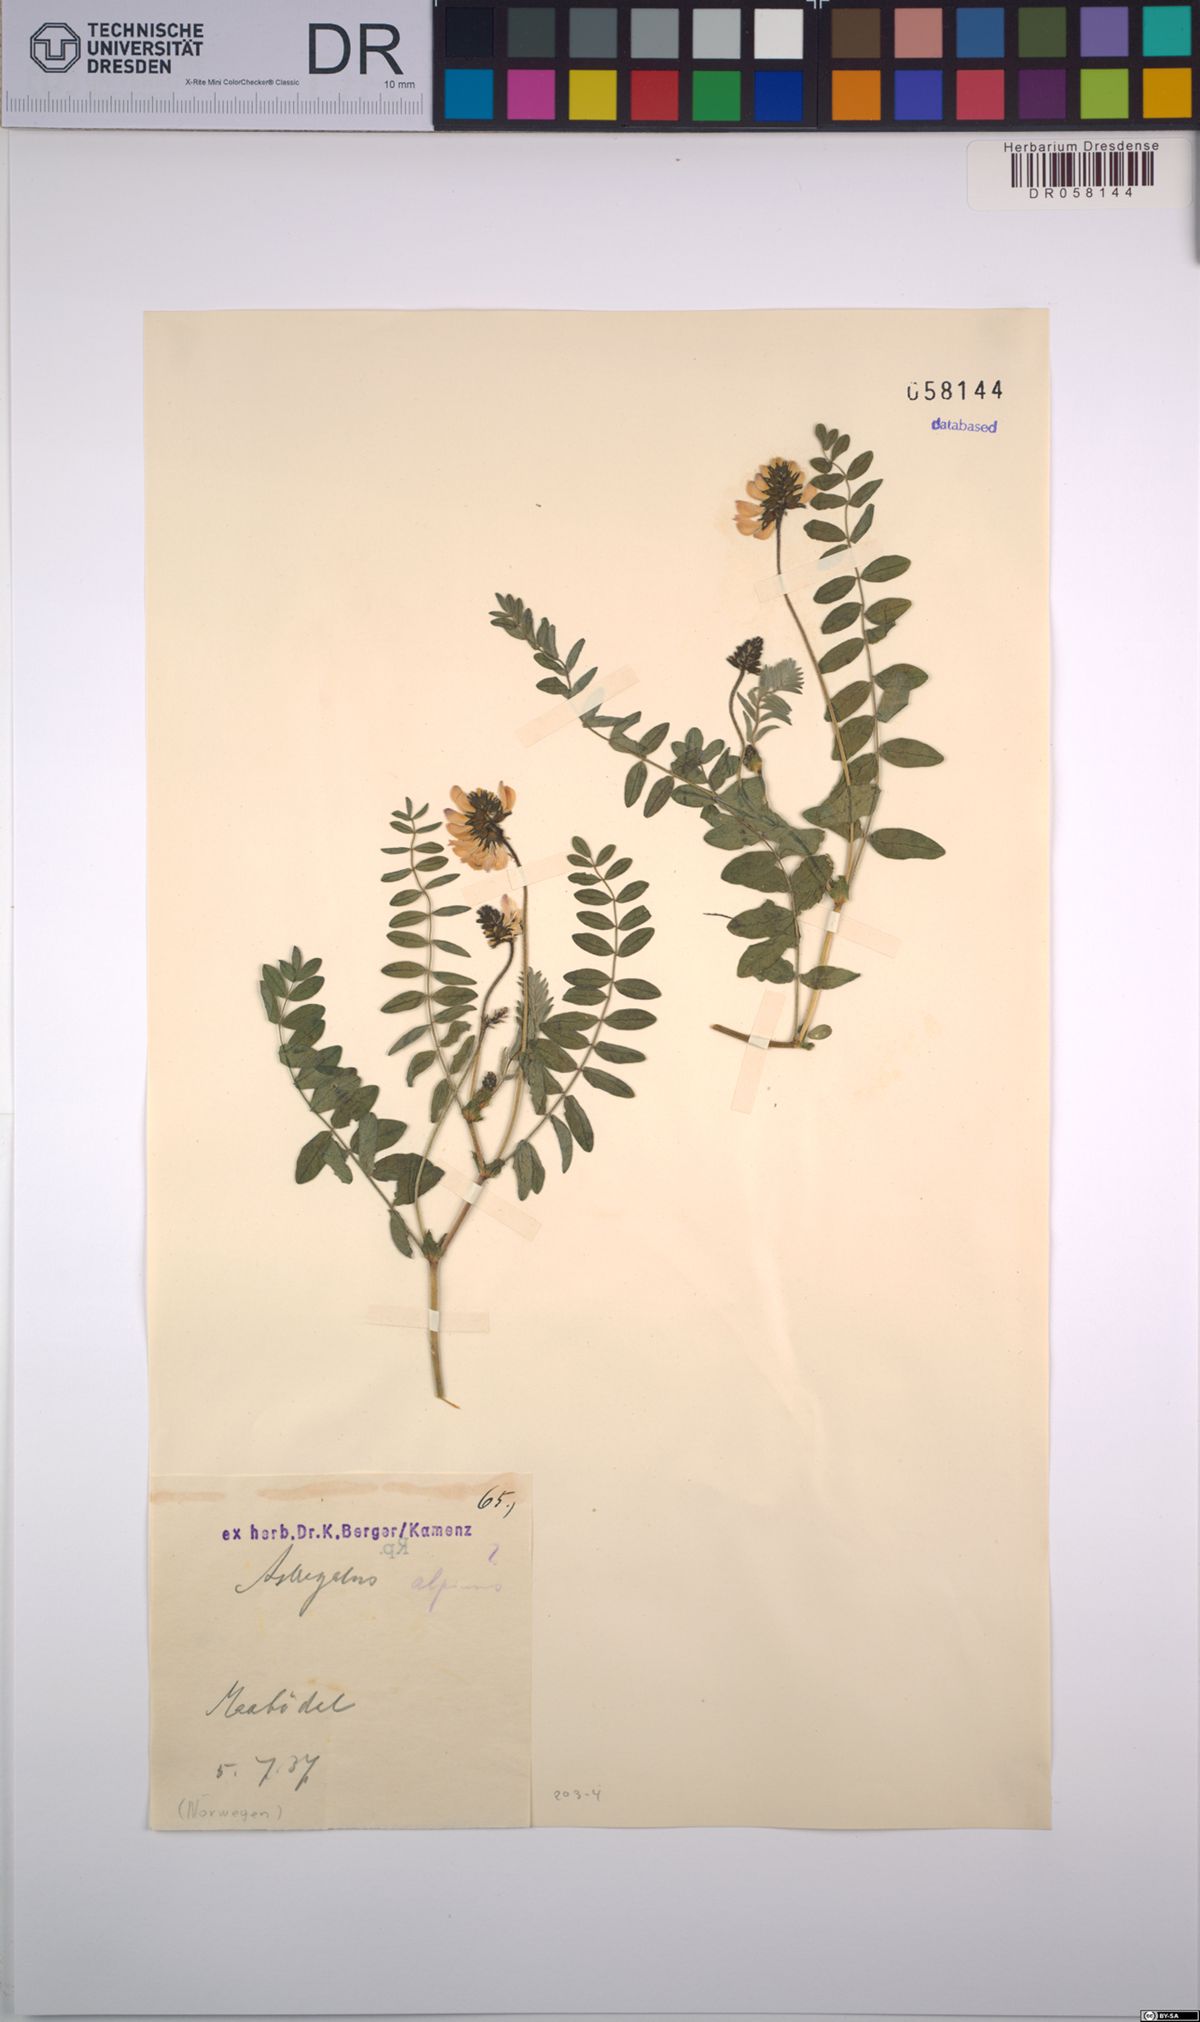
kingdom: Plantae
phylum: Tracheophyta
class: Magnoliopsida
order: Fabales
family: Fabaceae
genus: Astragalus
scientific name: Astragalus alpinus
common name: Alpine milk-vetch
